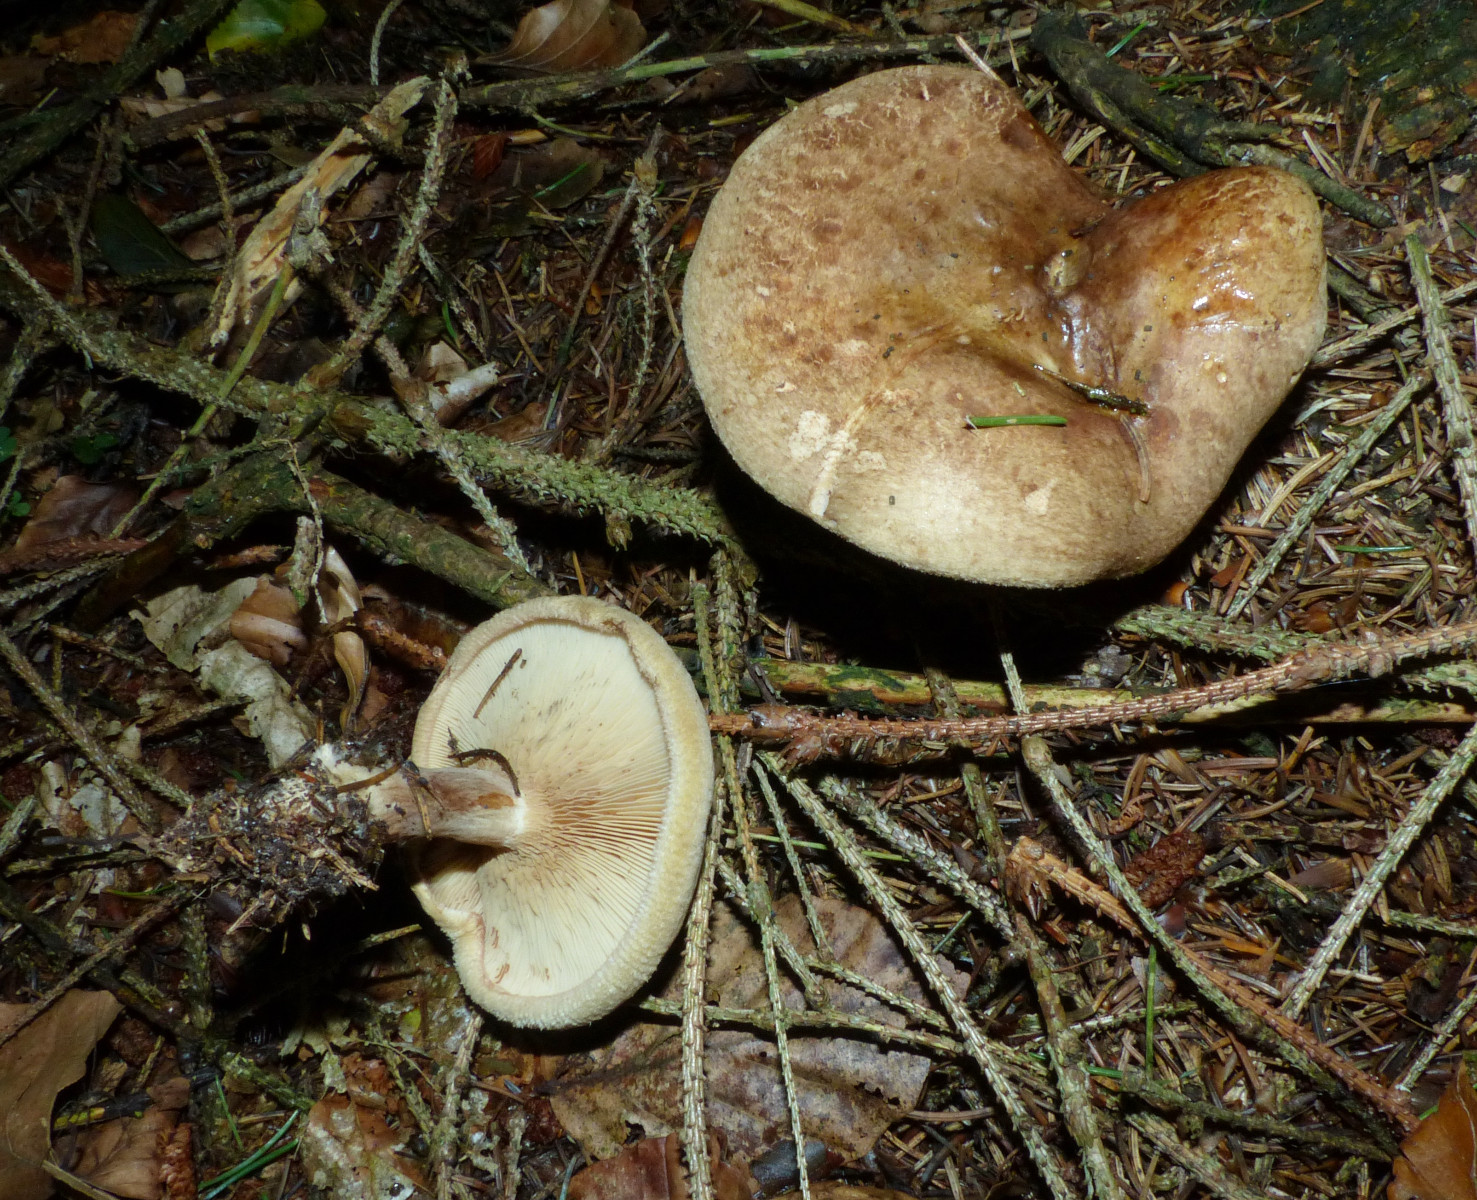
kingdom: Fungi
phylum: Basidiomycota
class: Agaricomycetes
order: Boletales
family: Paxillaceae
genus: Paxillus
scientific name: Paxillus involutus
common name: almindelig netbladhat
